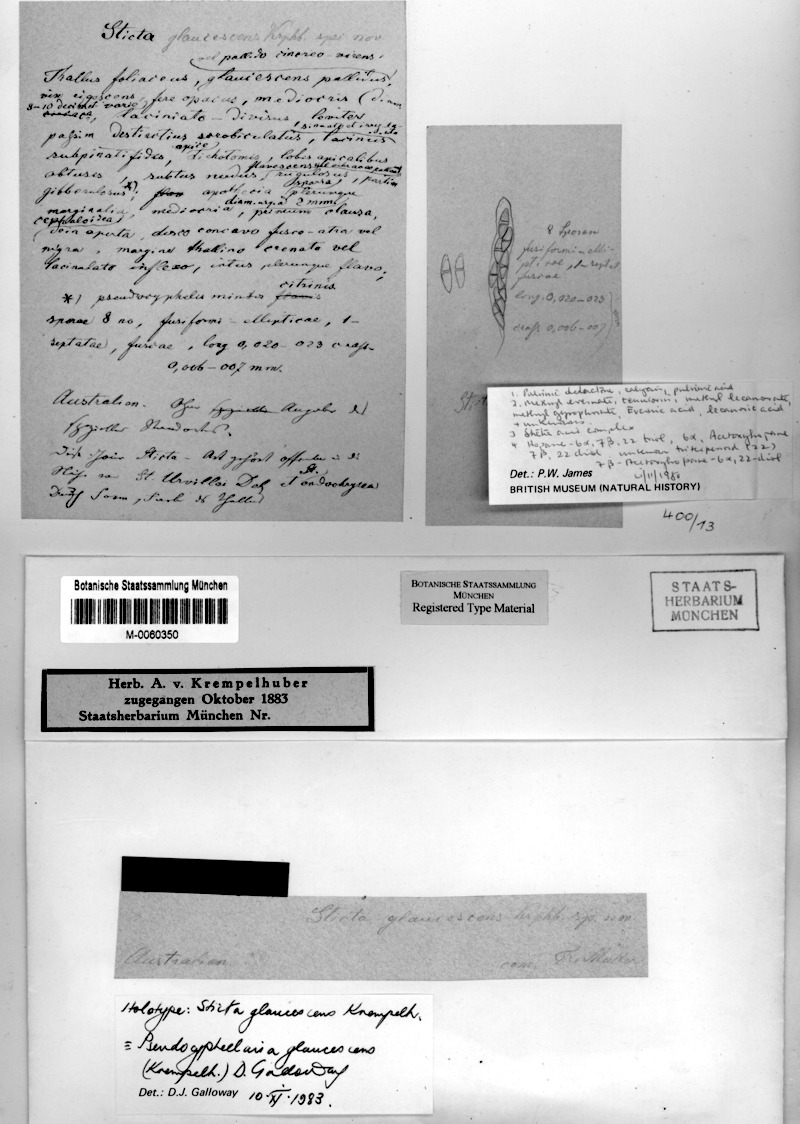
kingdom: Fungi
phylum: Ascomycota
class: Lecanoromycetes
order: Peltigerales
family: Lobariaceae
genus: Pseudocyphellaria
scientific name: Pseudocyphellaria glaucescens
